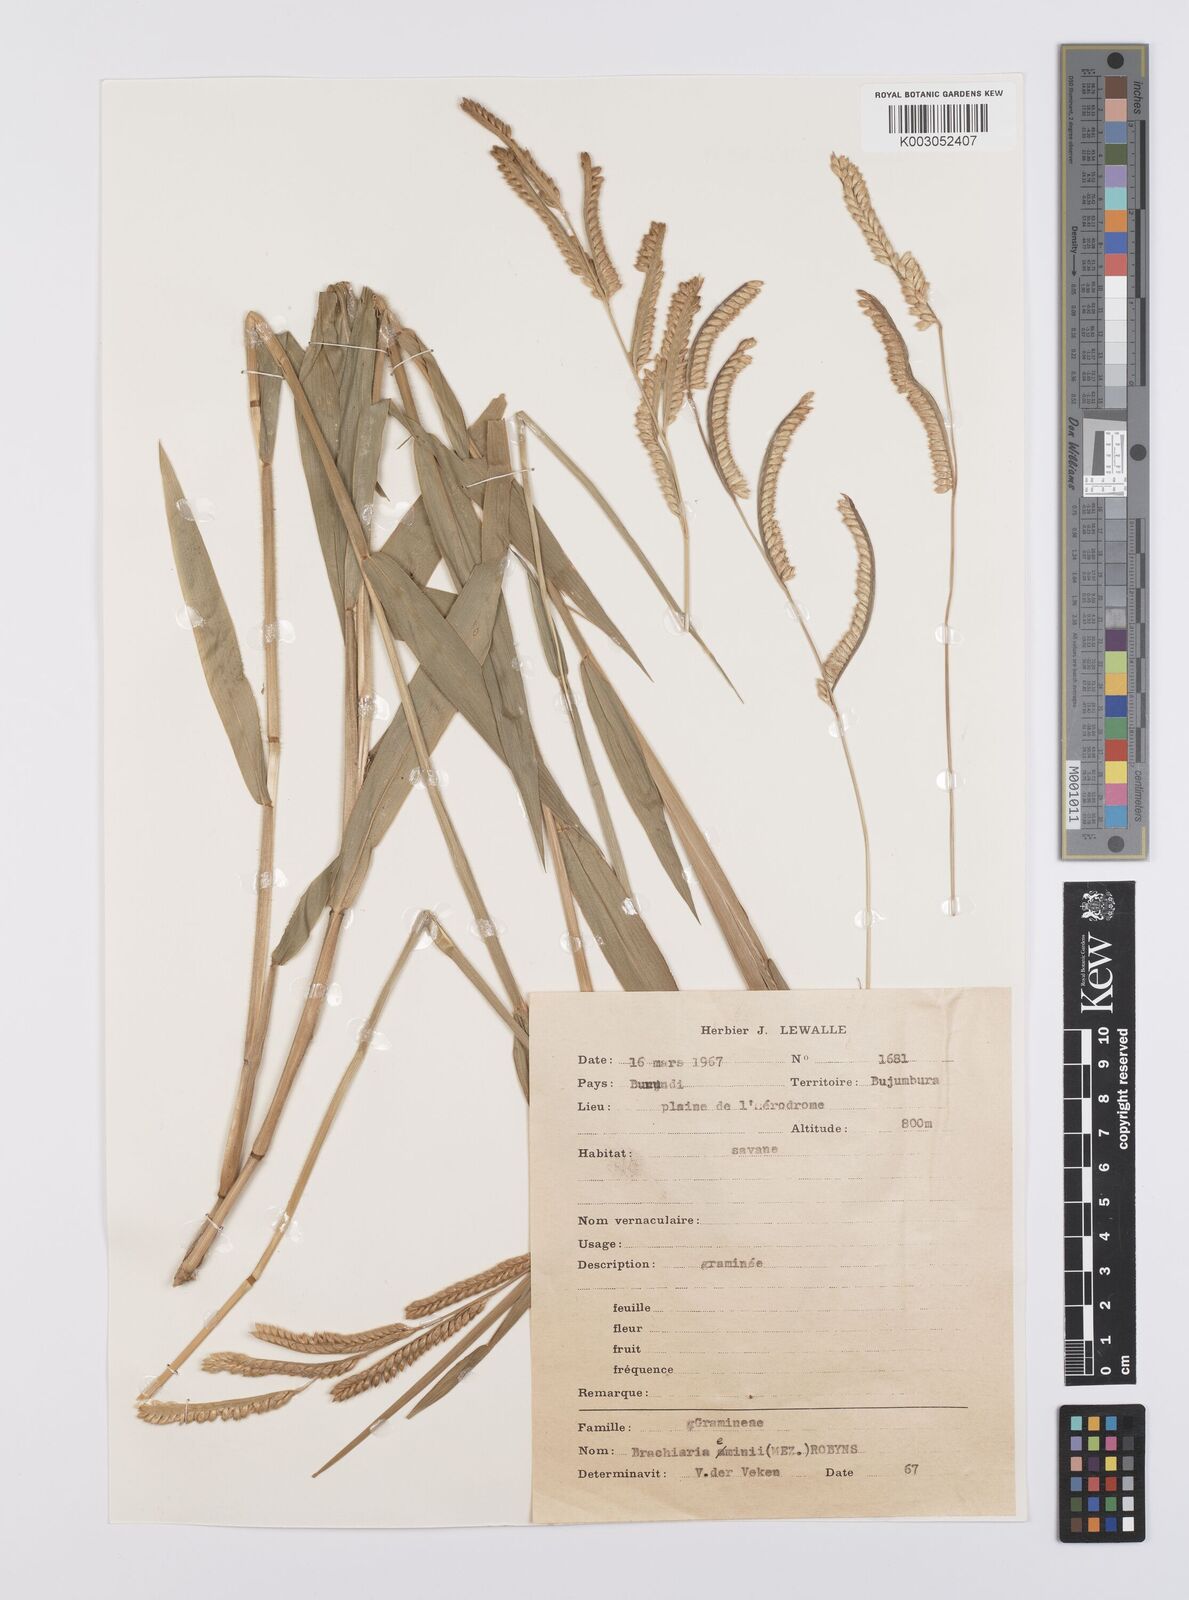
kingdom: Plantae
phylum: Tracheophyta
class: Liliopsida
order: Poales
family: Poaceae
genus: Urochloa
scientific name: Urochloa eminii
